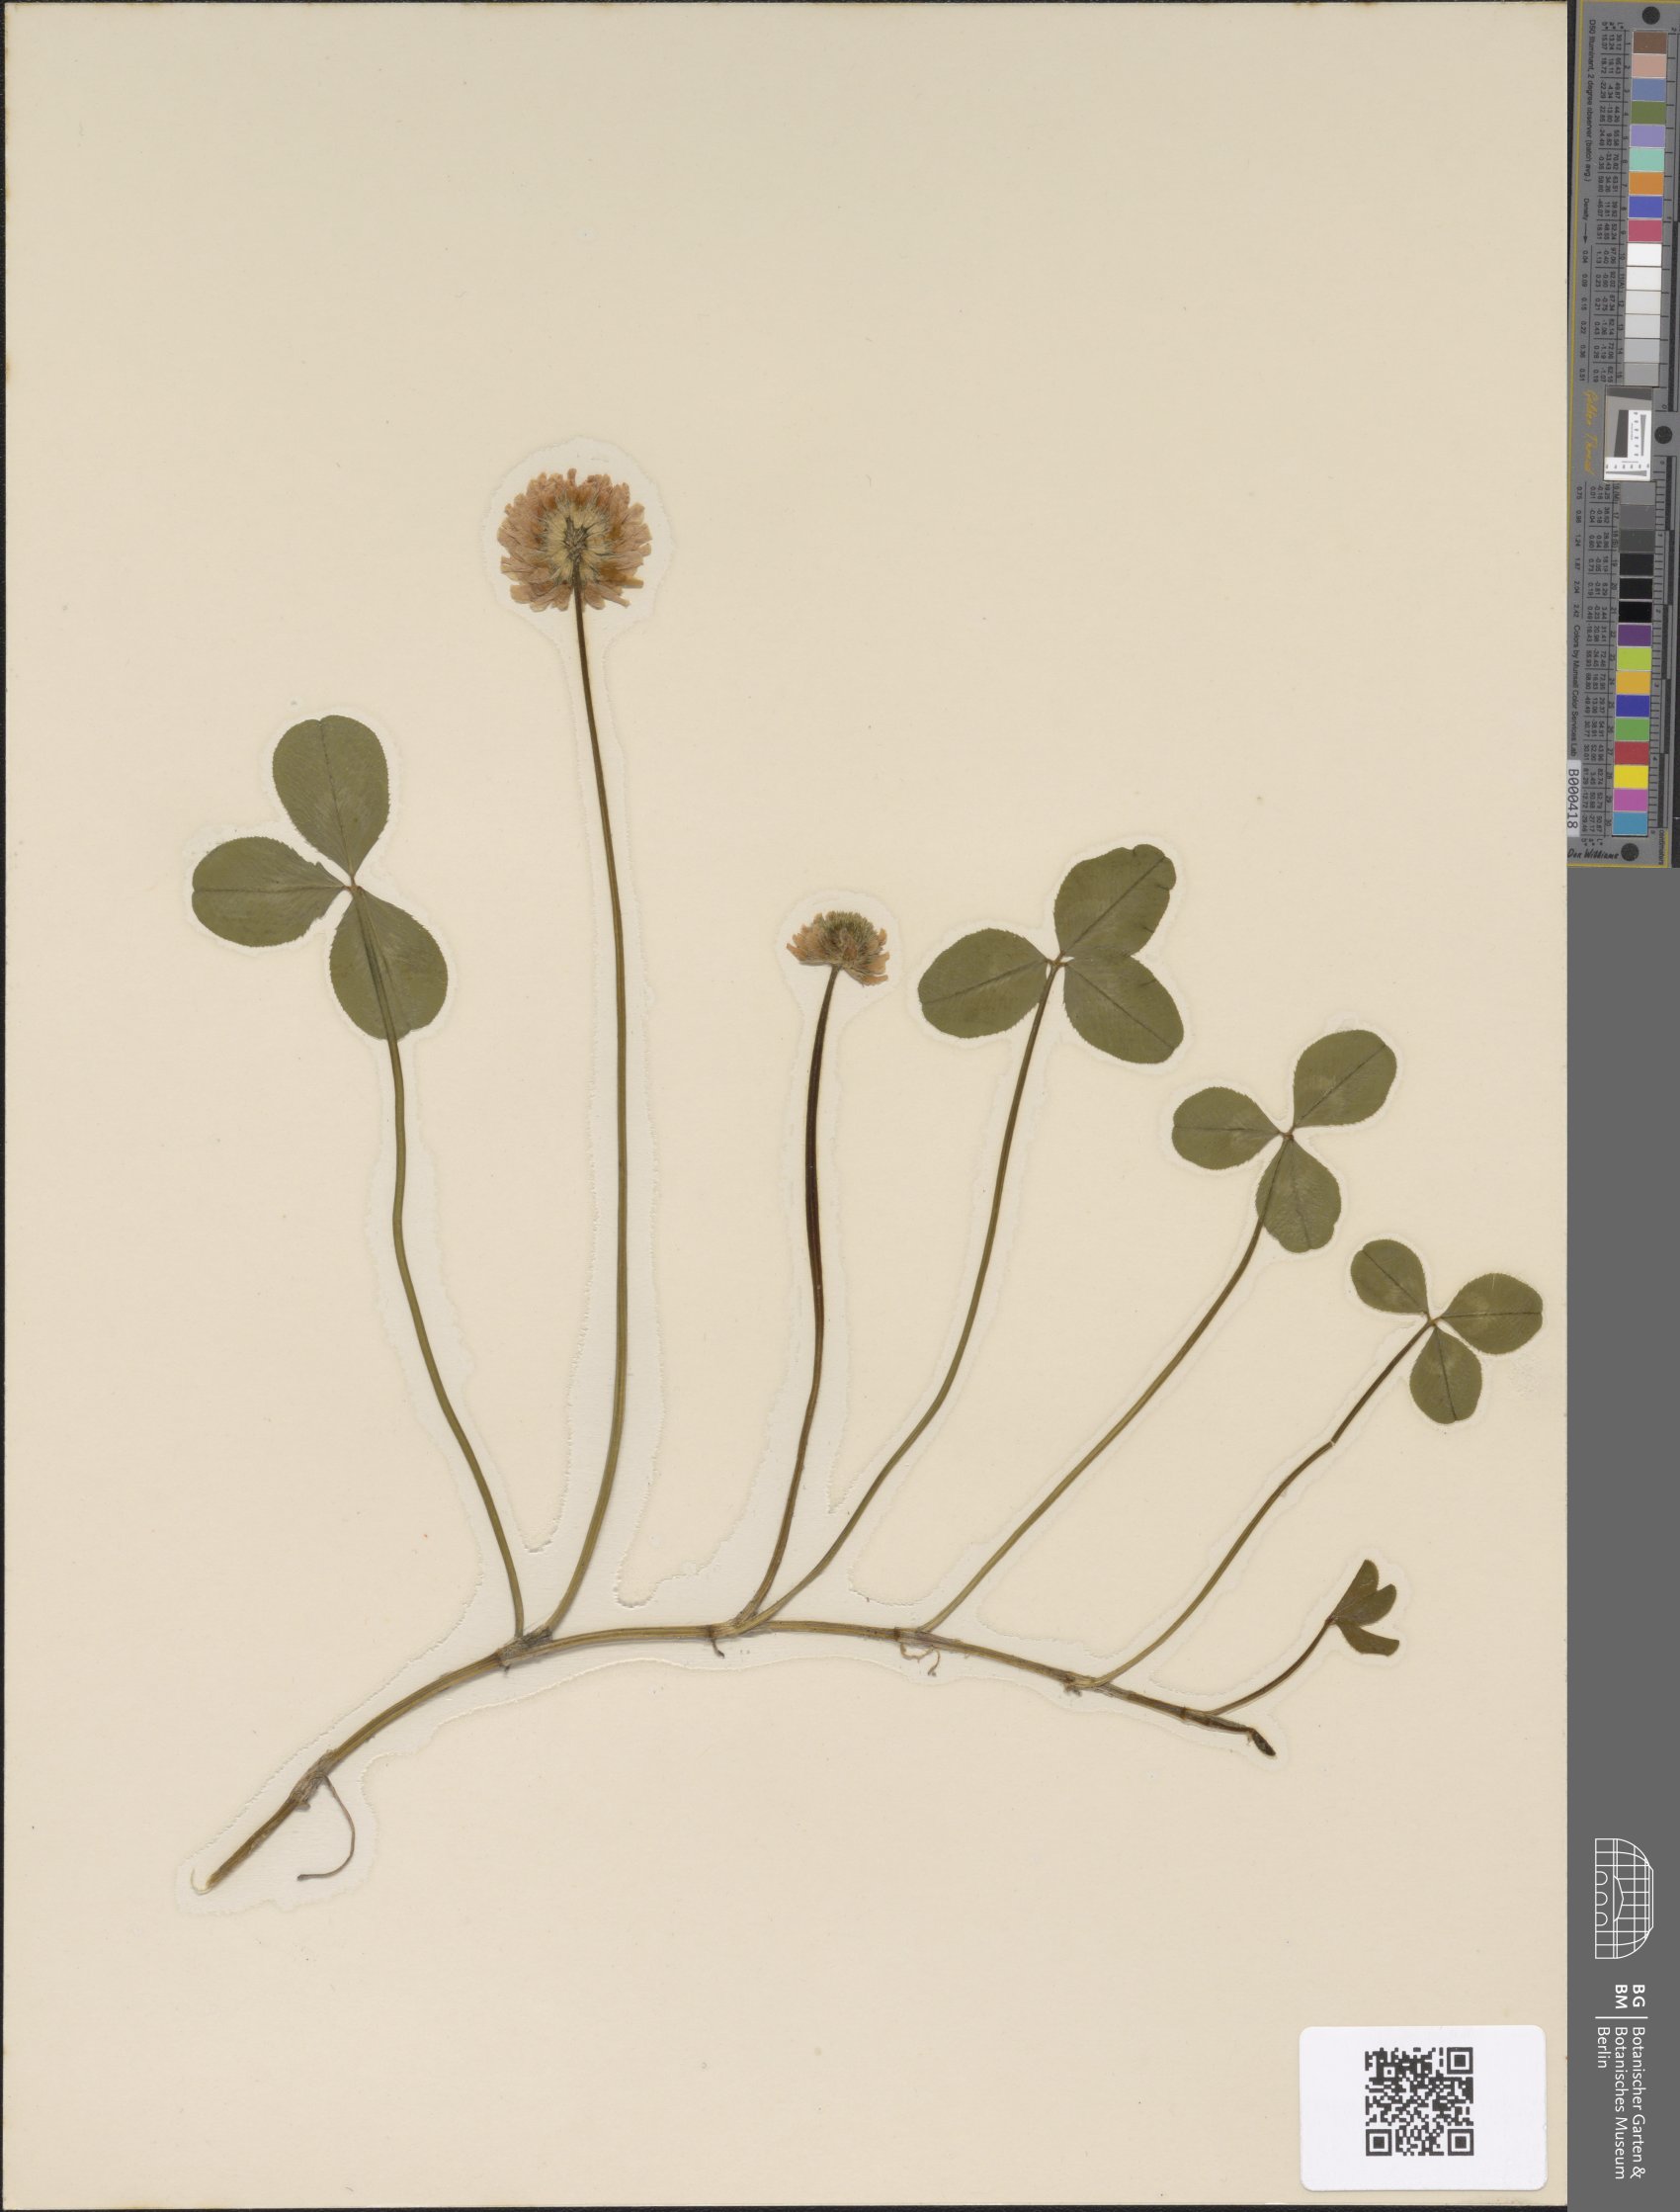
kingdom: Plantae
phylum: Tracheophyta
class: Magnoliopsida
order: Fabales
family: Fabaceae
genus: Trifolium
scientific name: Trifolium repens
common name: White clover
